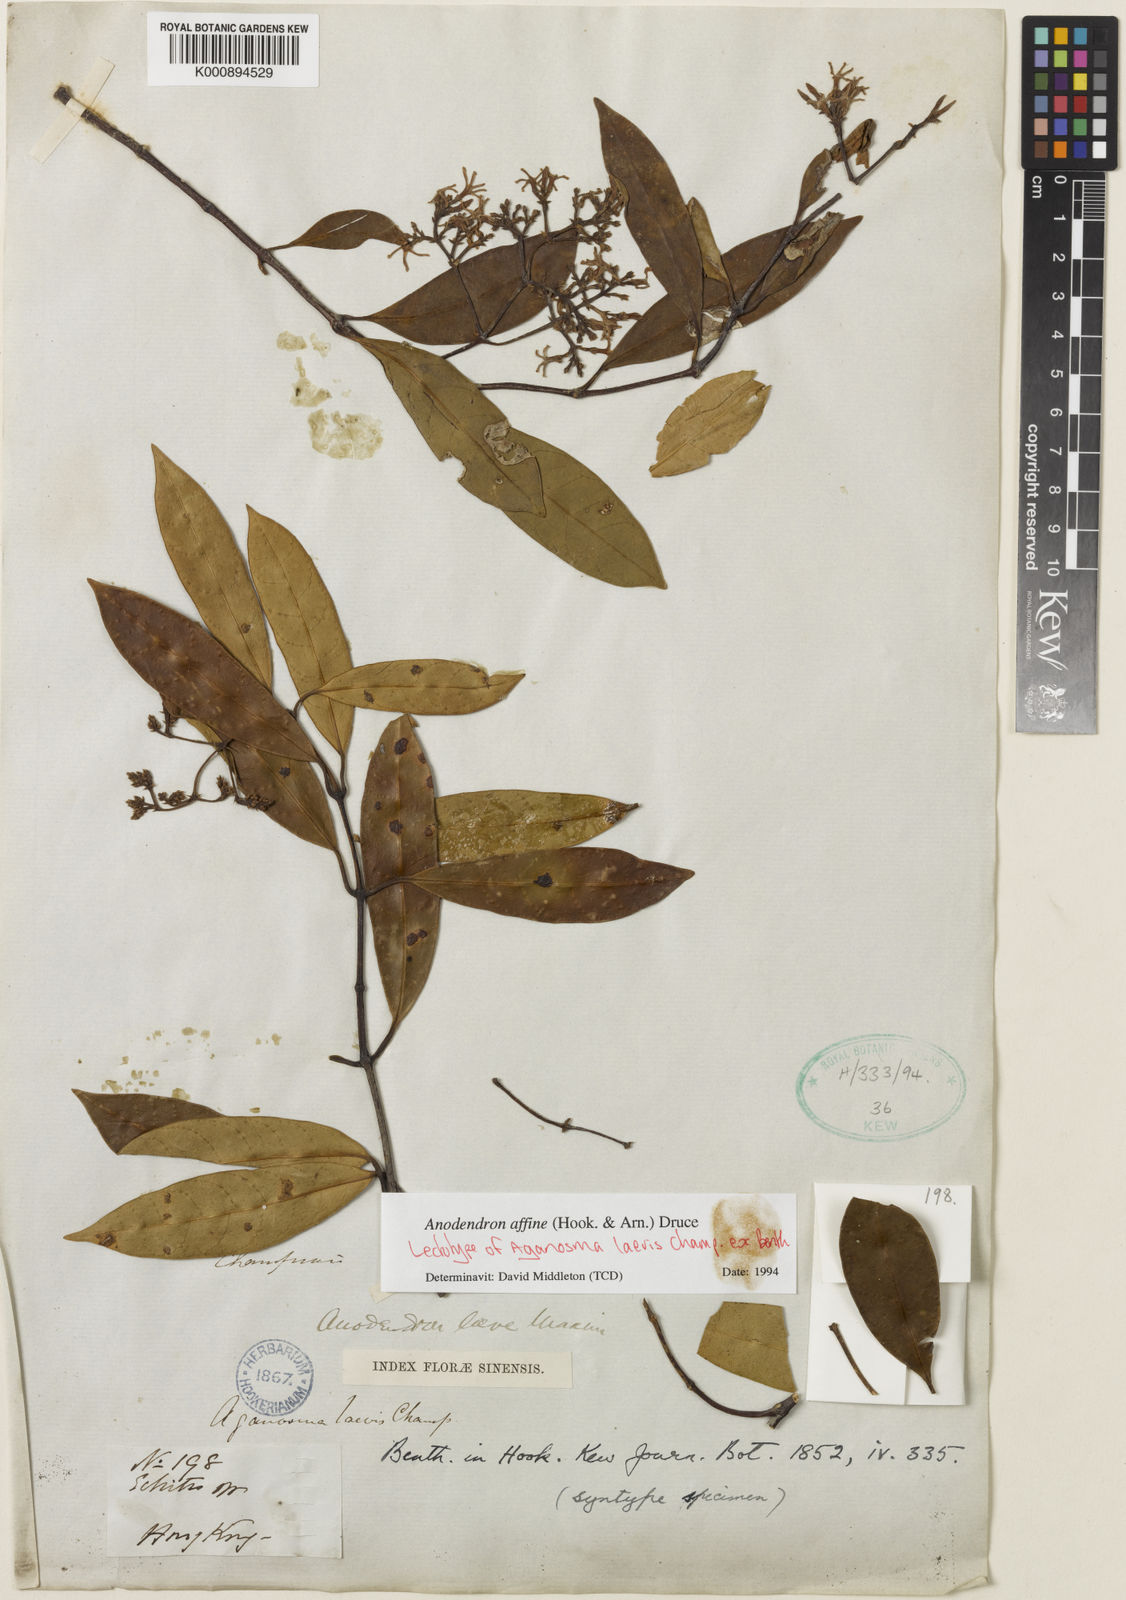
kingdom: Plantae
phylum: Tracheophyta
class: Magnoliopsida
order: Gentianales
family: Apocynaceae
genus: Anodendron
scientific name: Anodendron affine
